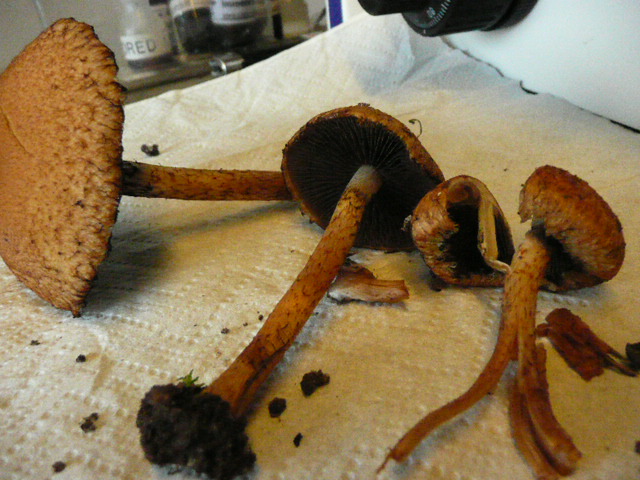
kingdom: Fungi
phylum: Basidiomycota
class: Agaricomycetes
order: Agaricales
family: Psathyrellaceae
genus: Lacrymaria
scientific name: Lacrymaria lacrymabunda
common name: grædende mørkhat
